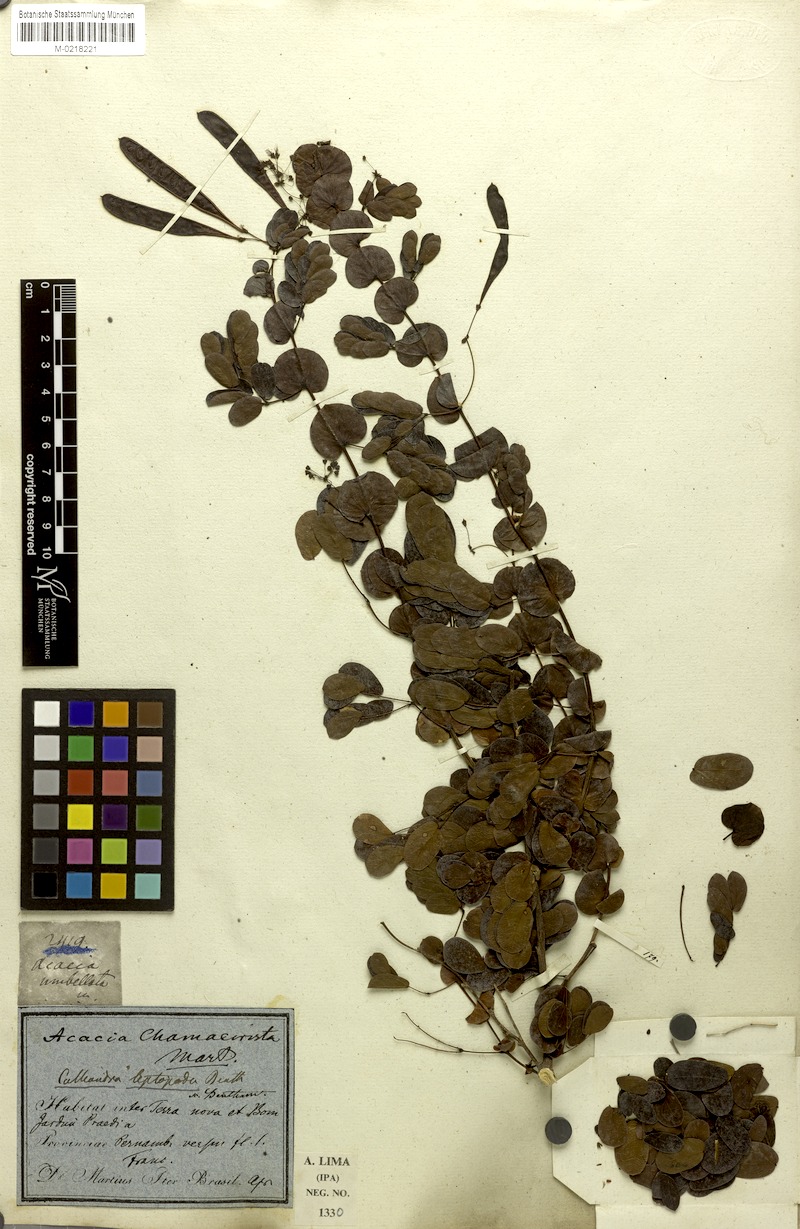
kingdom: Plantae
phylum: Tracheophyta
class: Magnoliopsida
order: Fabales
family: Fabaceae
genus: Calliandra
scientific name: Calliandra leptopoda
